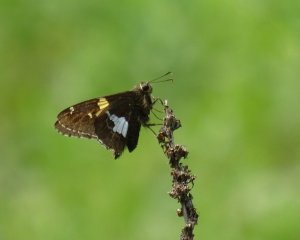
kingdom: Animalia
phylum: Arthropoda
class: Insecta
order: Lepidoptera
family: Hesperiidae
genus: Epargyreus
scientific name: Epargyreus clarus
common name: Silver-spotted Skipper
